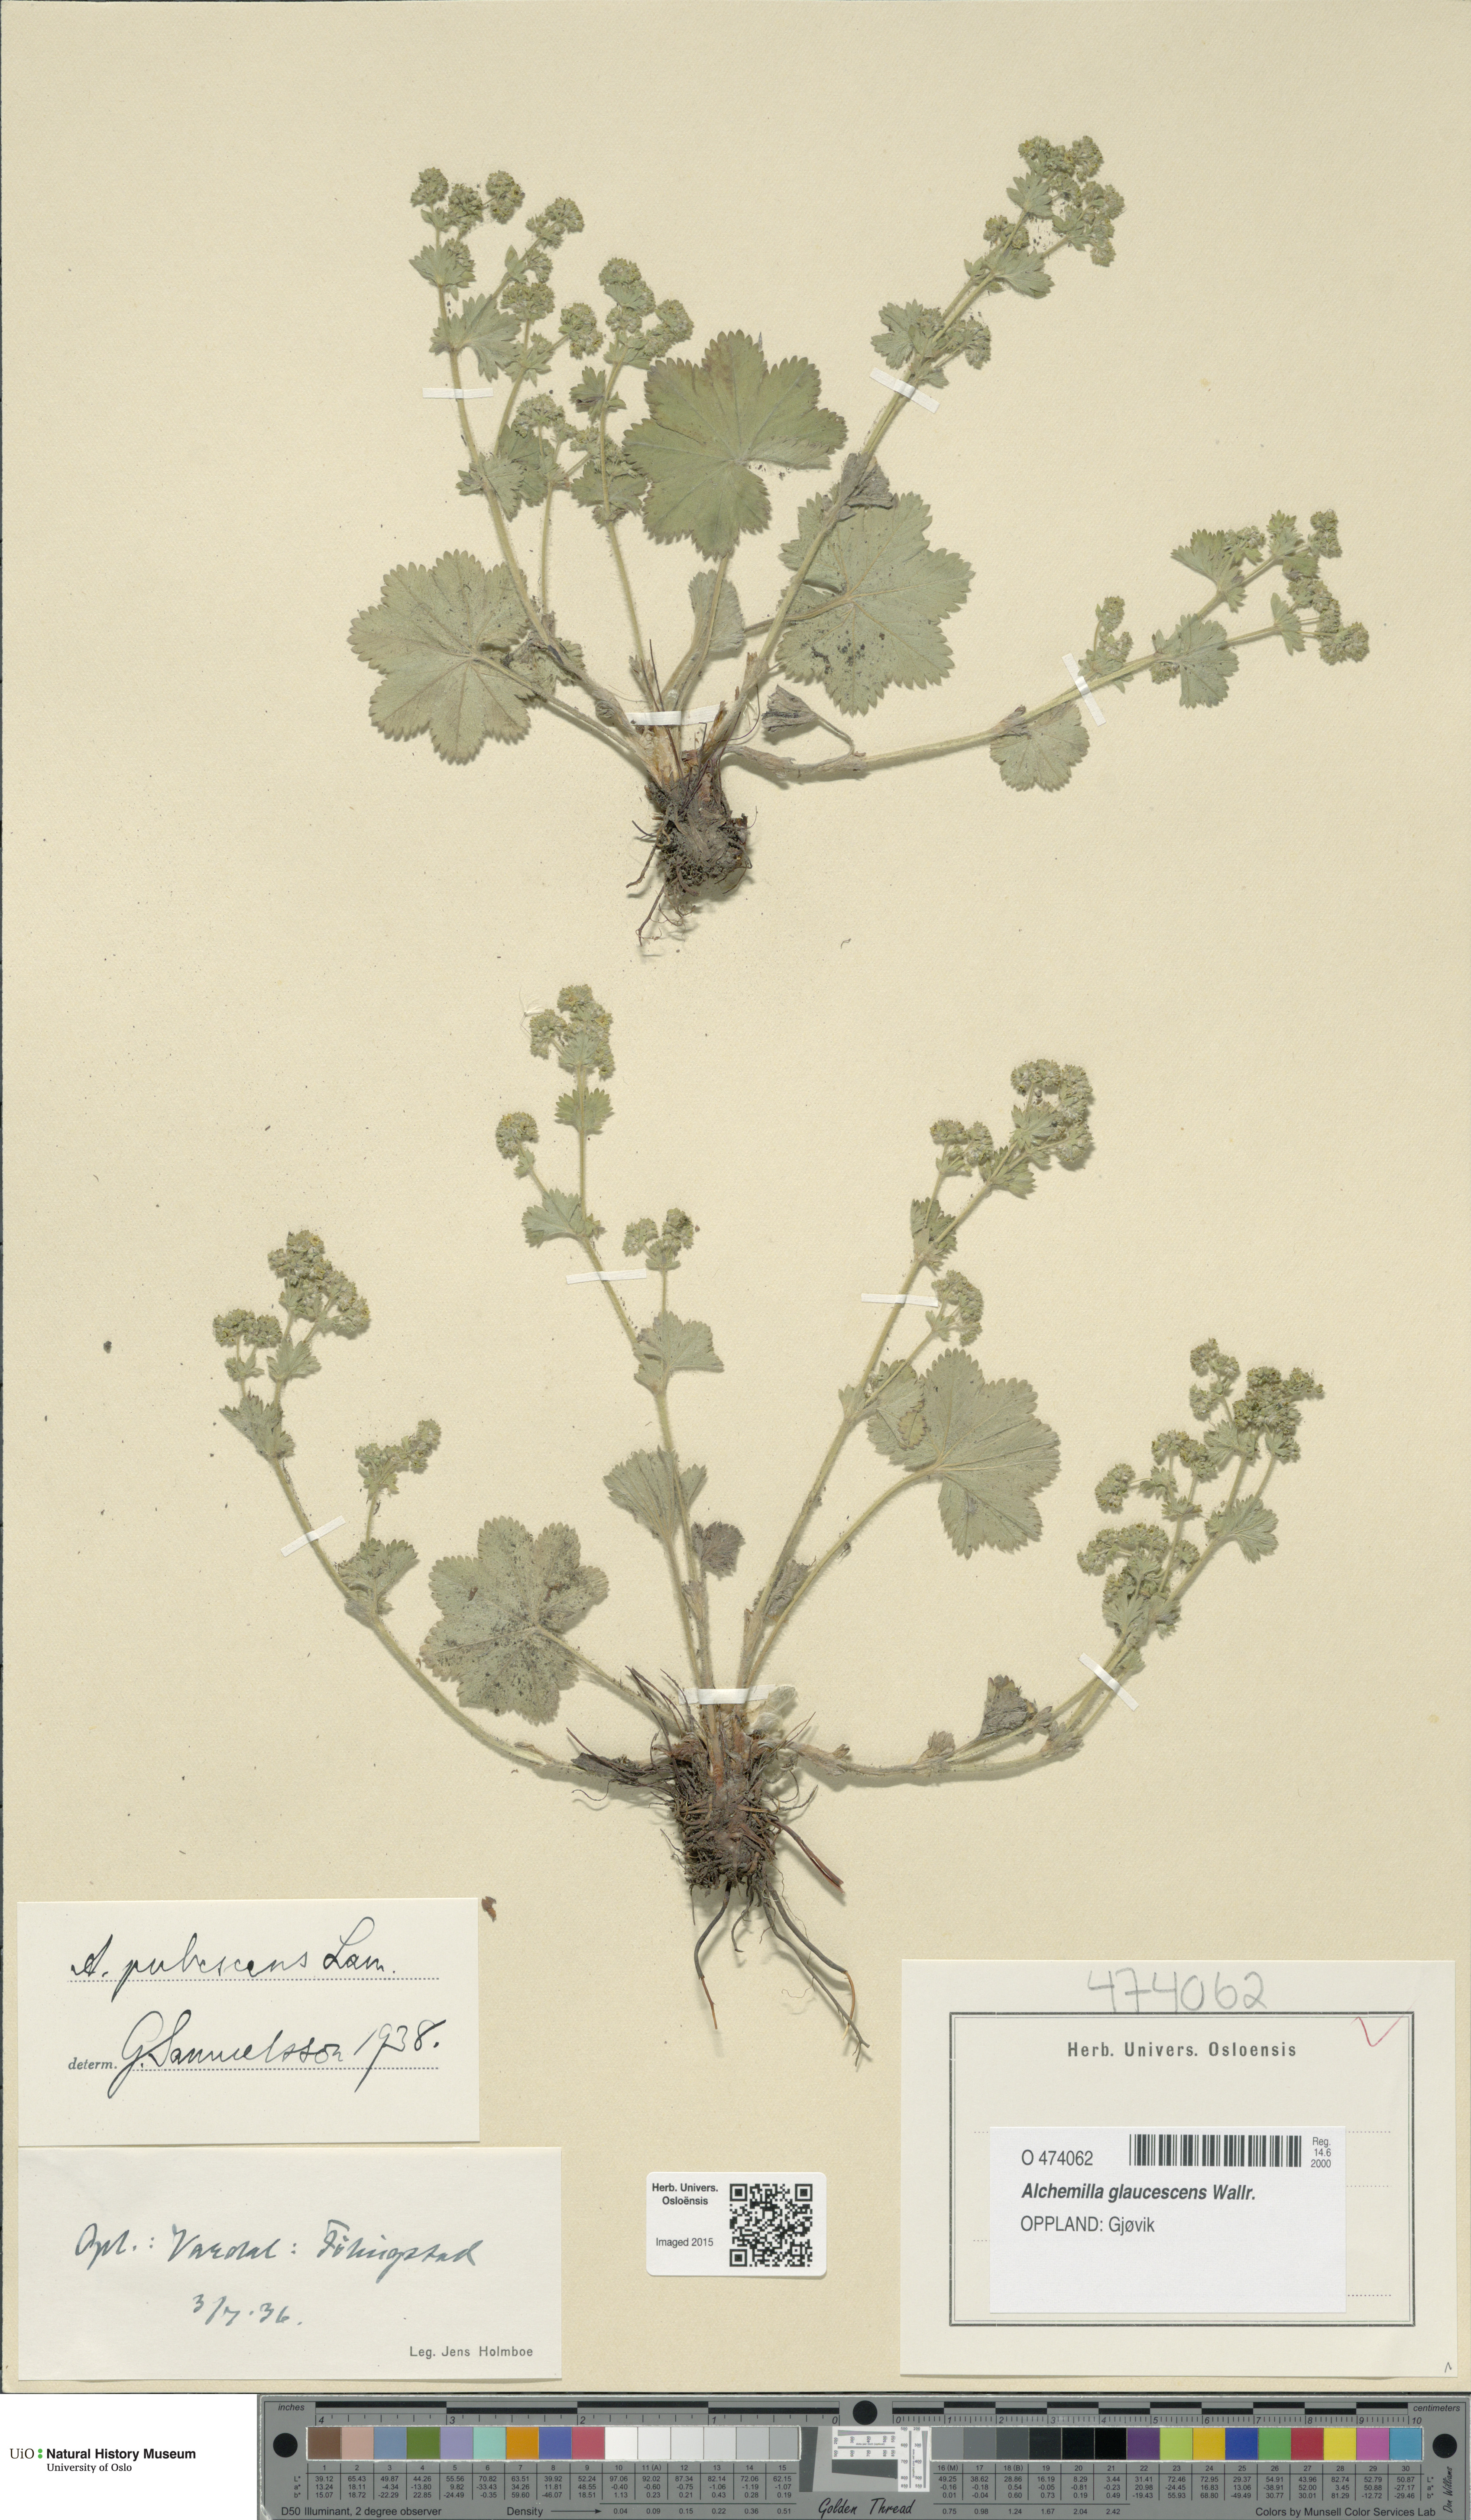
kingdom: Plantae
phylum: Tracheophyta
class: Magnoliopsida
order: Rosales
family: Rosaceae
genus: Alchemilla
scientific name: Alchemilla glaucescens
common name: Silky lady's mantle
